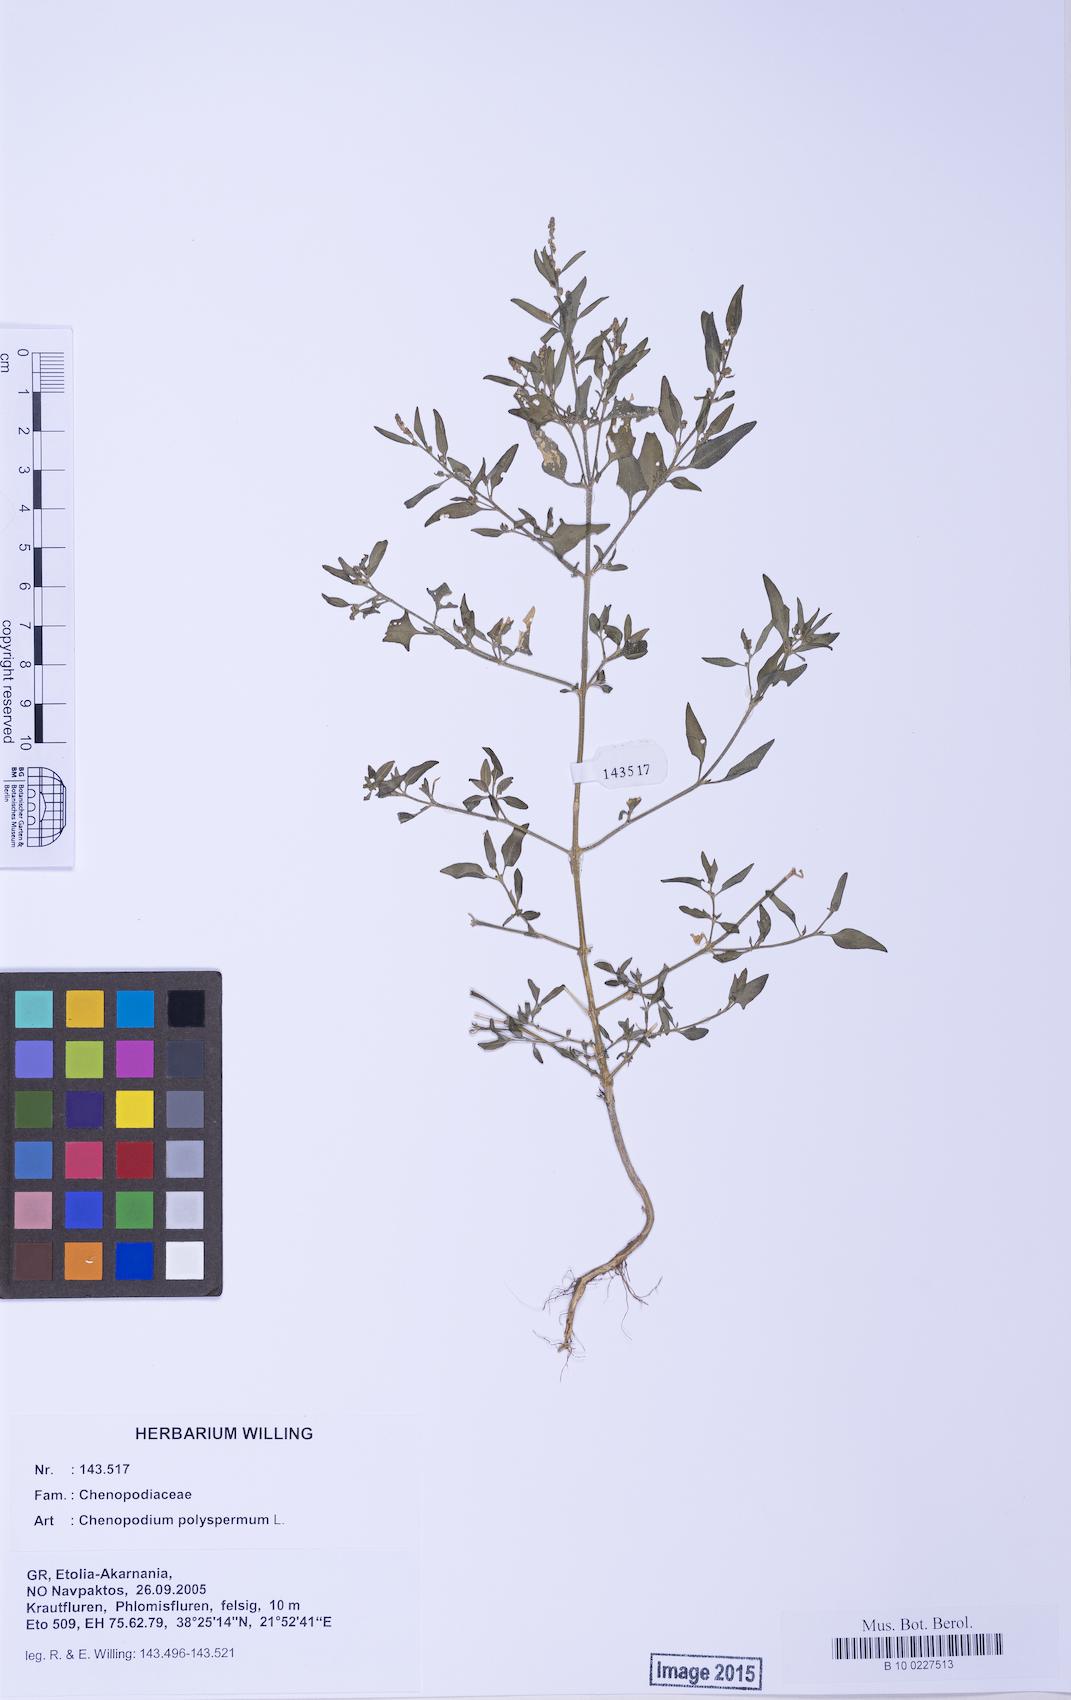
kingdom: Plantae
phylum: Tracheophyta
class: Magnoliopsida
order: Caryophyllales
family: Amaranthaceae
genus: Atriplex
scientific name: Atriplex patula
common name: Common orache
